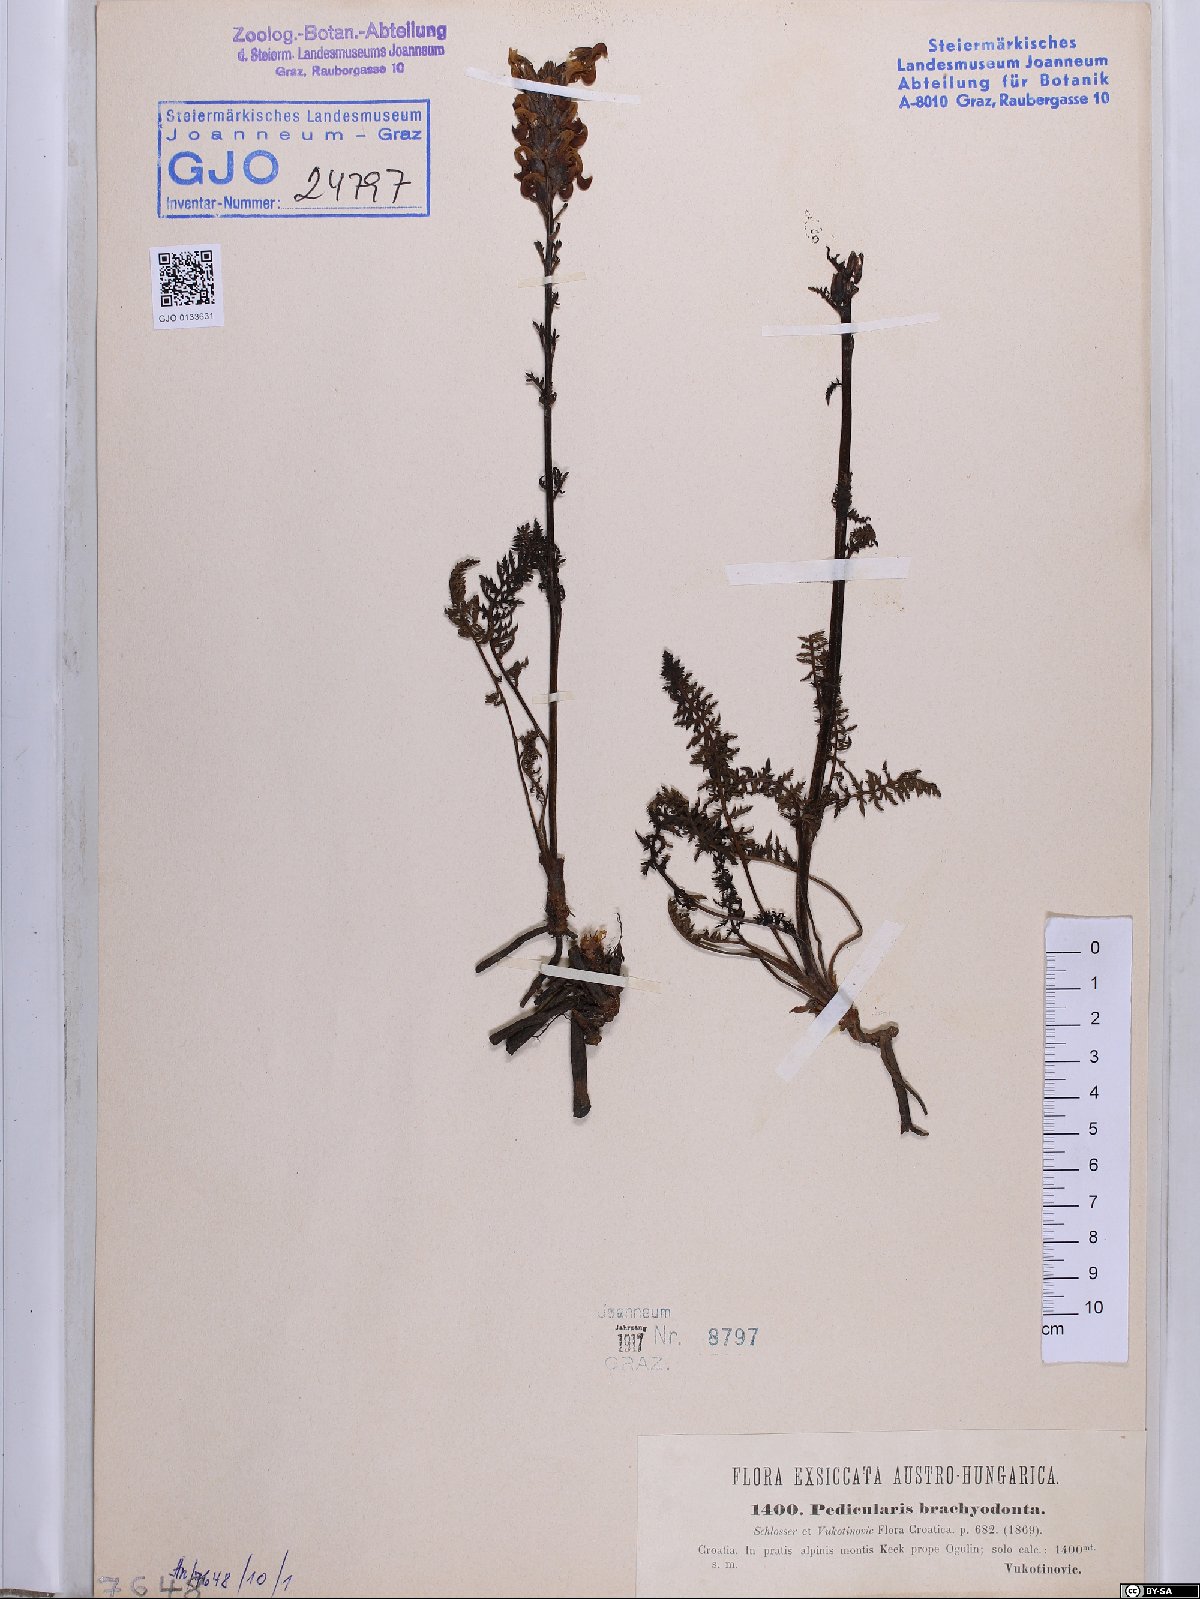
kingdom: Plantae
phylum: Tracheophyta
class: Magnoliopsida
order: Lamiales
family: Orobanchaceae
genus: Pedicularis
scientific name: Pedicularis brachyodonta
